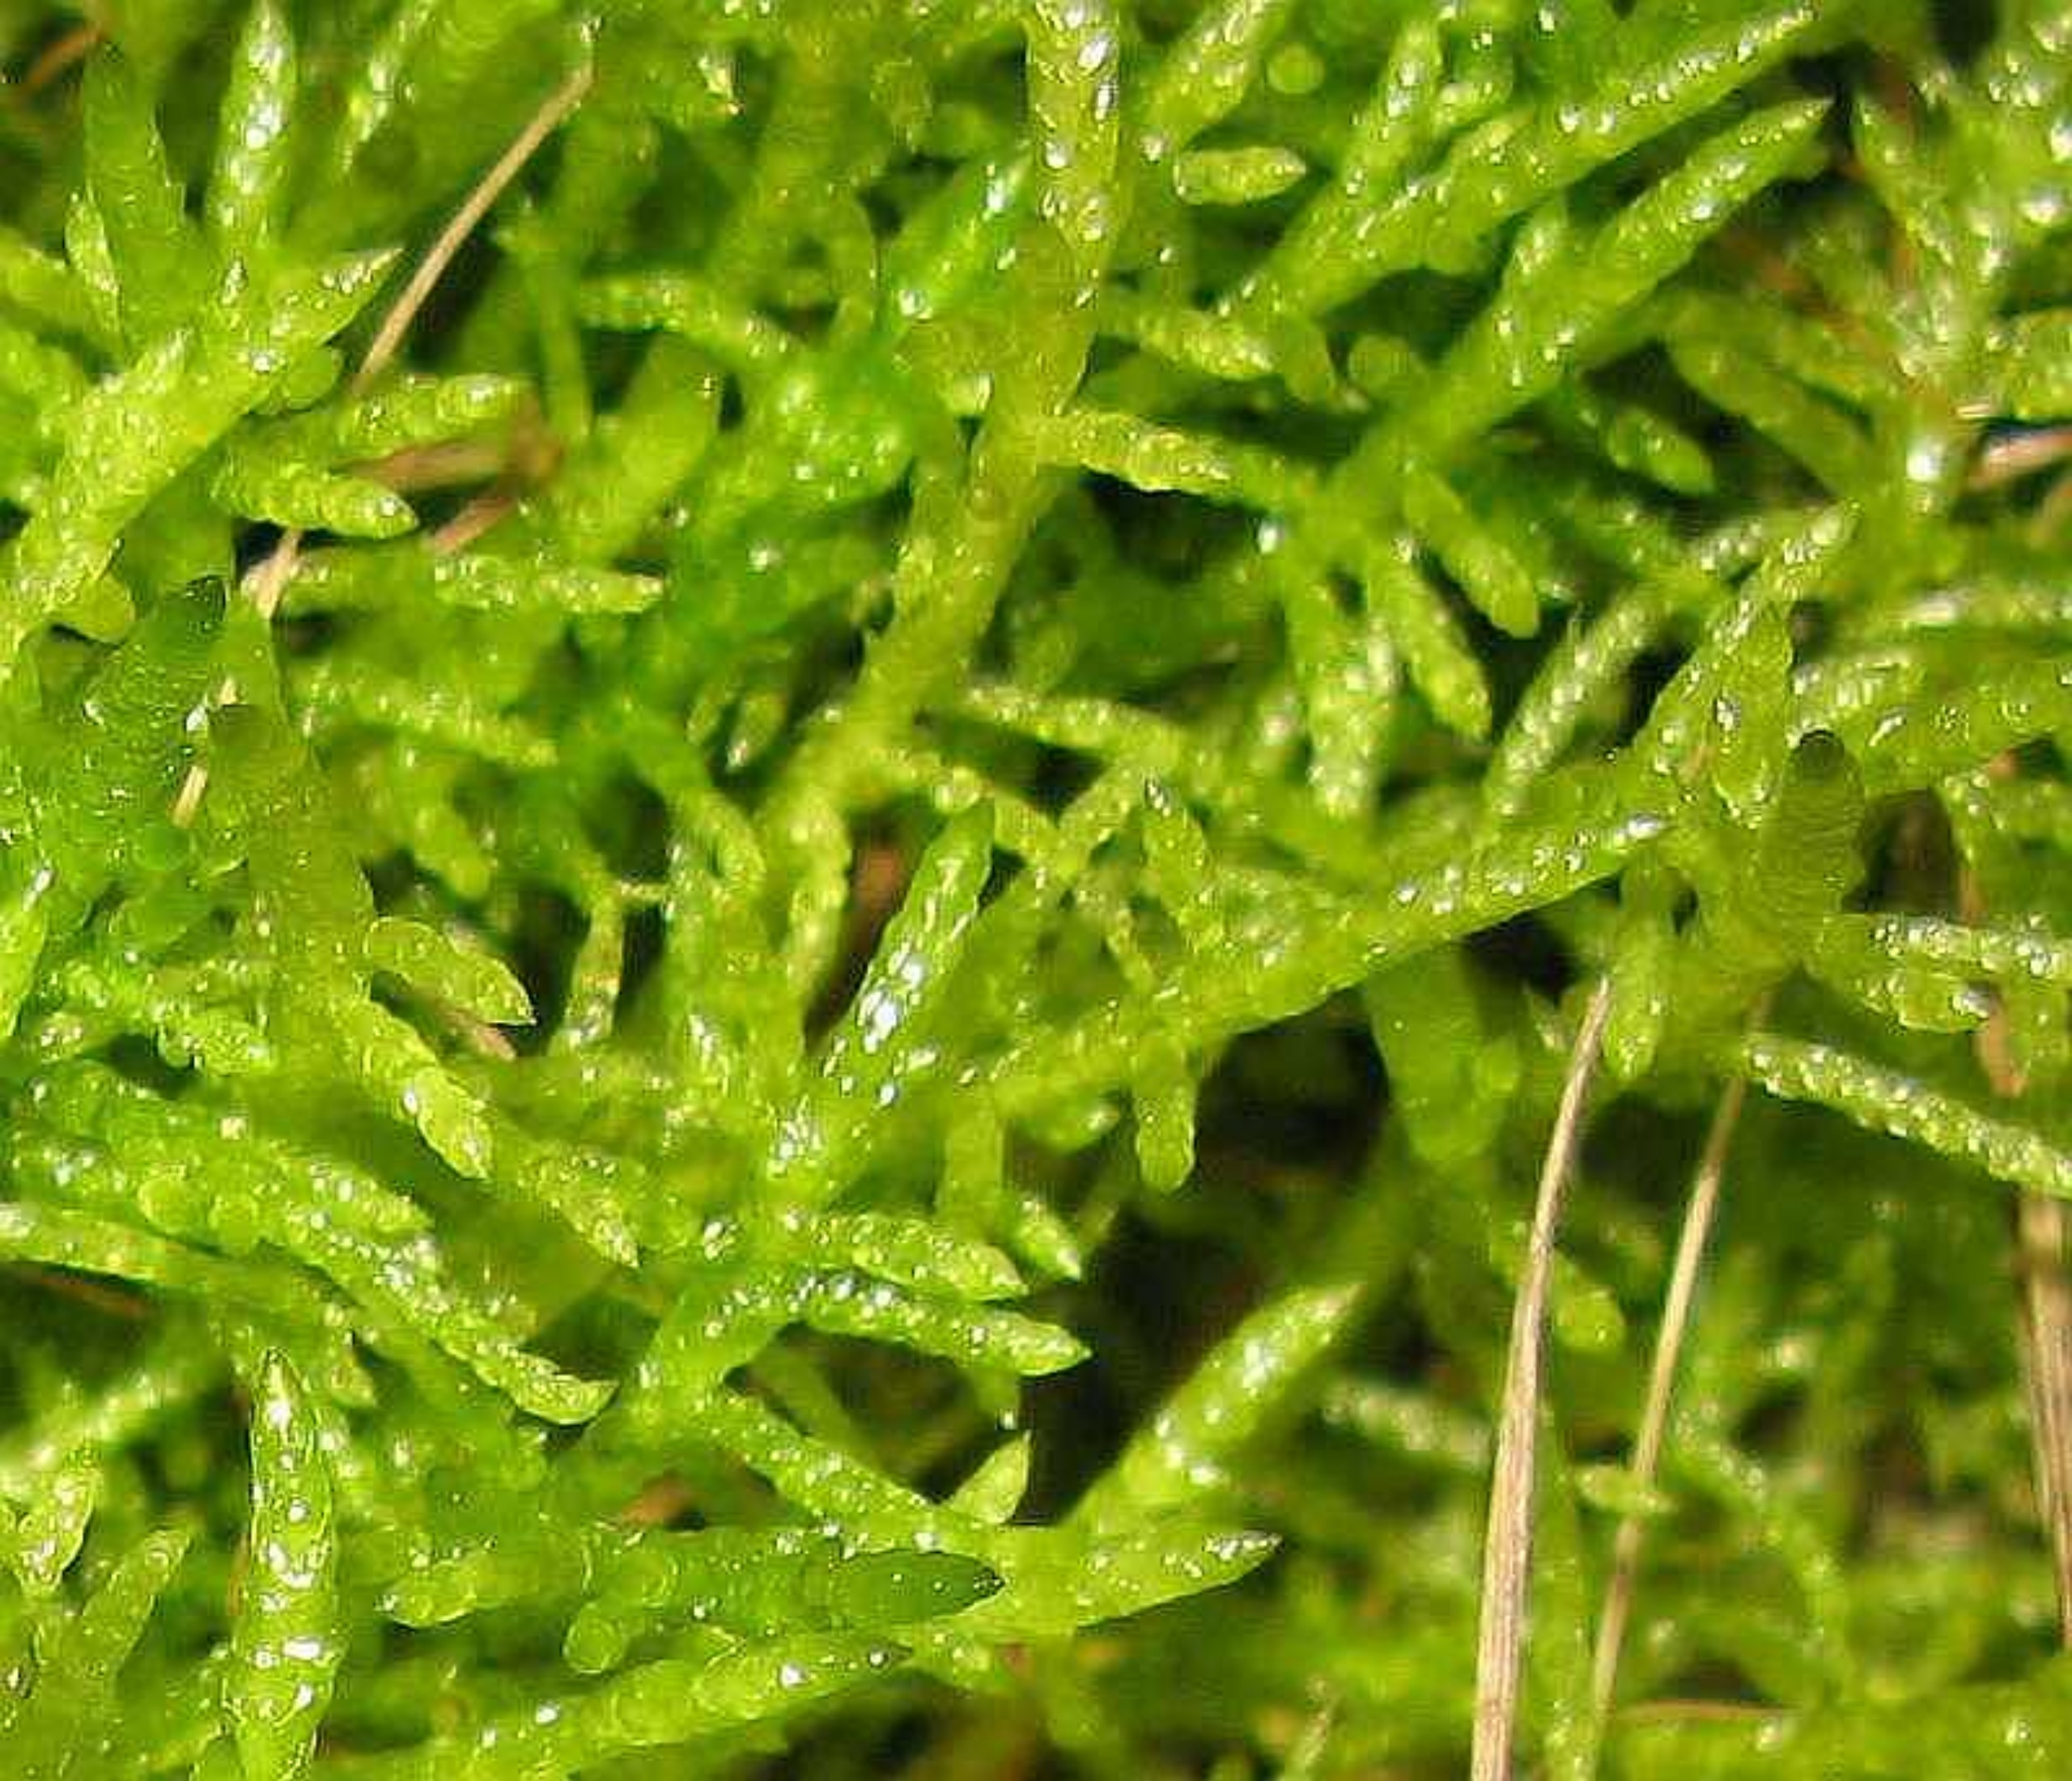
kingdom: Plantae
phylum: Bryophyta
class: Bryopsida
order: Hypnales
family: Brachytheciaceae
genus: Pseudoscleropodium
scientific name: Pseudoscleropodium purum
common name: Hulbladet fedtmos
